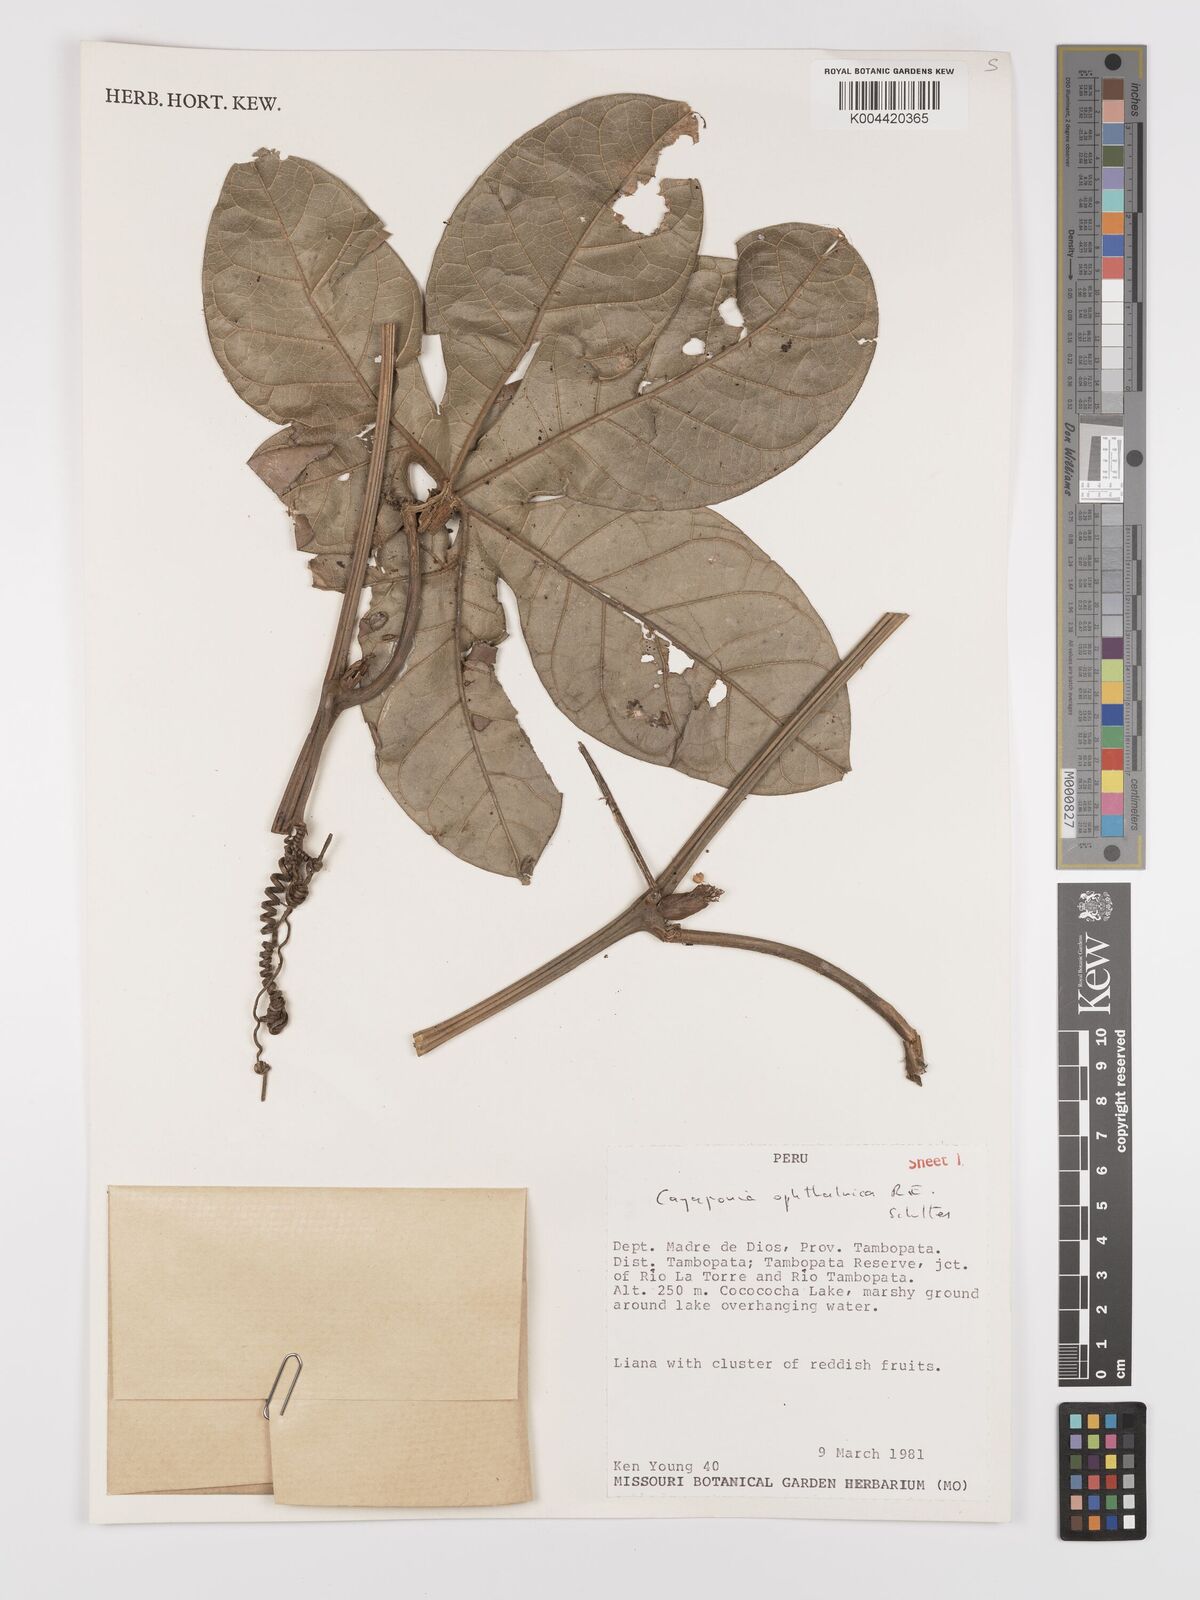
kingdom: Plantae
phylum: Tracheophyta
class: Magnoliopsida
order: Cucurbitales
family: Cucurbitaceae
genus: Cayaponia
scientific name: Cayaponia ophthalmica
